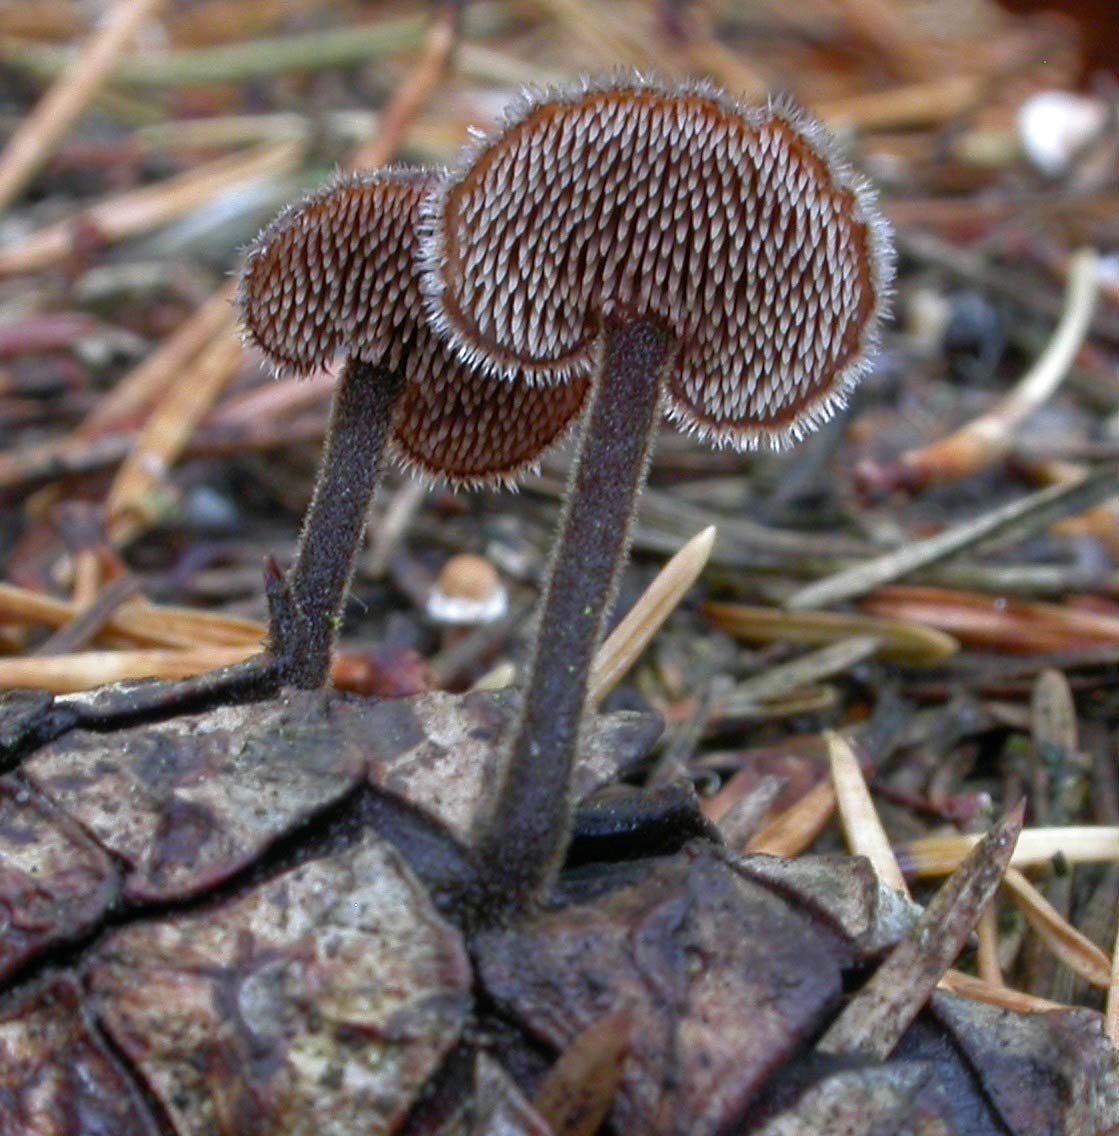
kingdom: Fungi
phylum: Basidiomycota
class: Agaricomycetes
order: Russulales
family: Auriscalpiaceae
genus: Auriscalpium
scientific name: Auriscalpium vulgare
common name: koglepigsvamp
